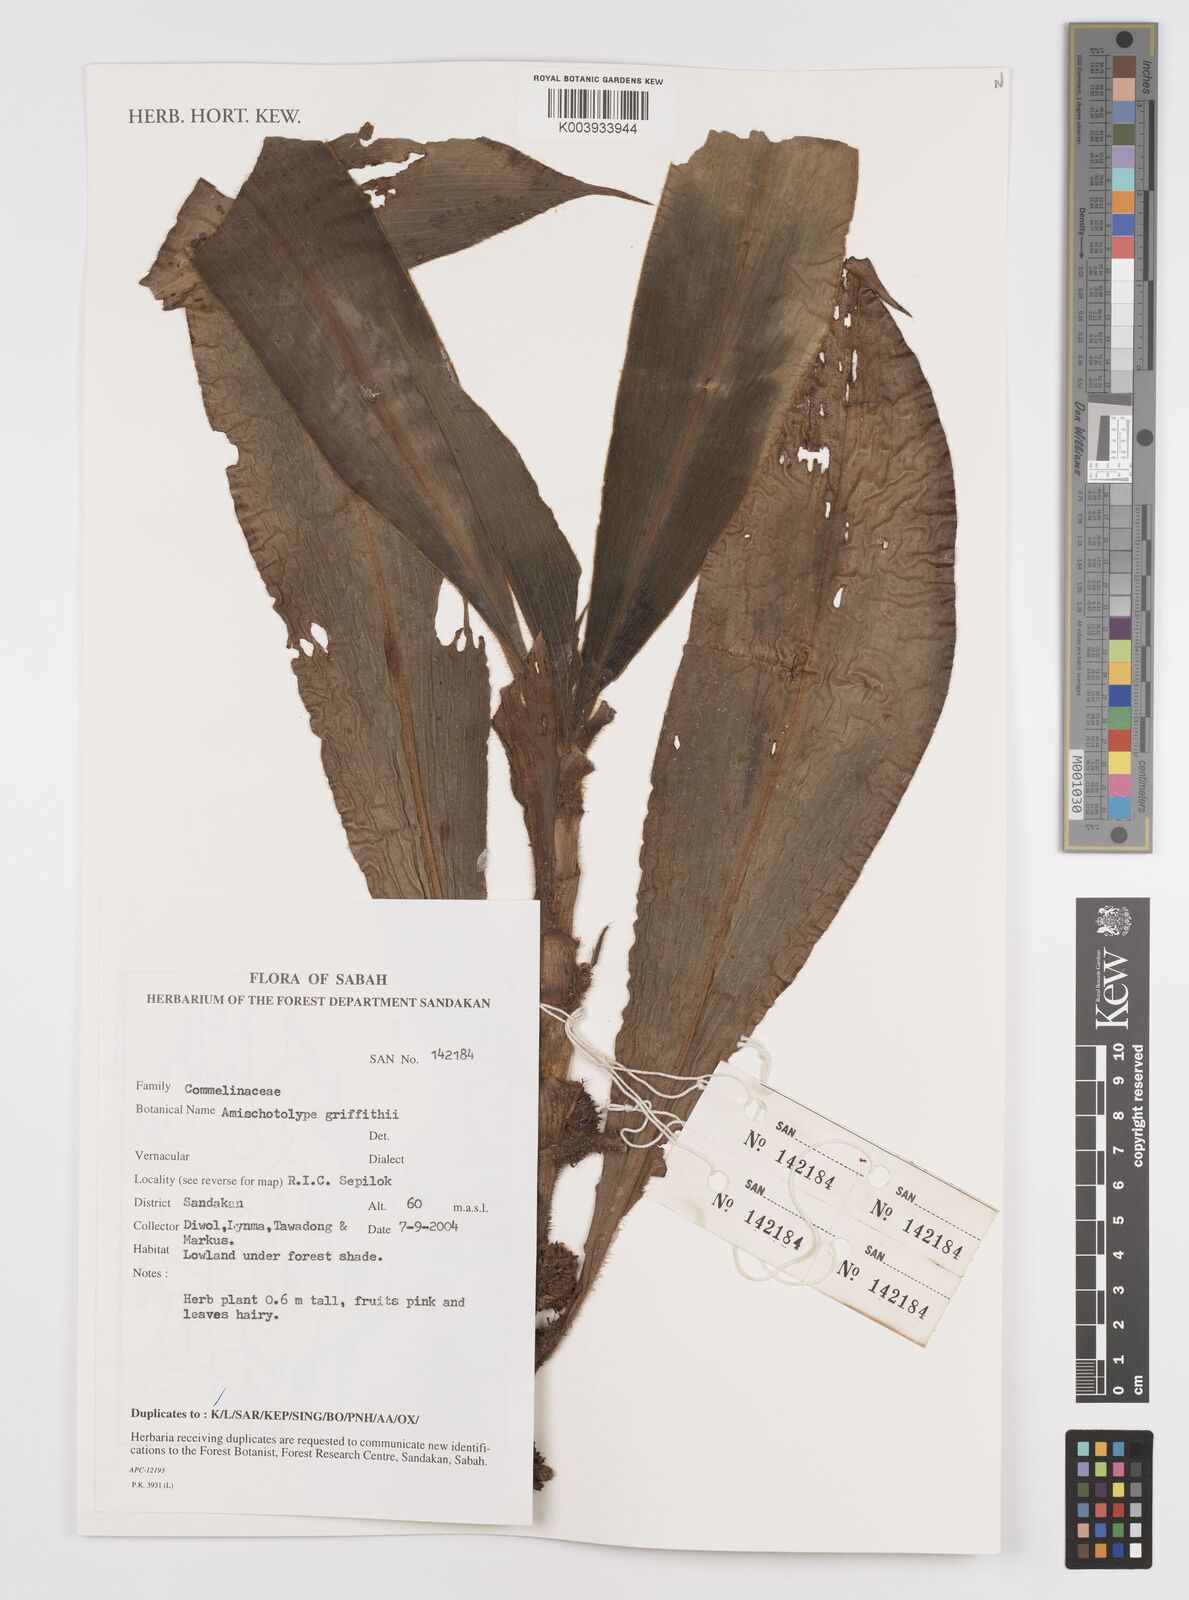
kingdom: Plantae
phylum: Tracheophyta
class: Liliopsida
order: Commelinales
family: Commelinaceae
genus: Amischotolype
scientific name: Amischotolype griffithii
